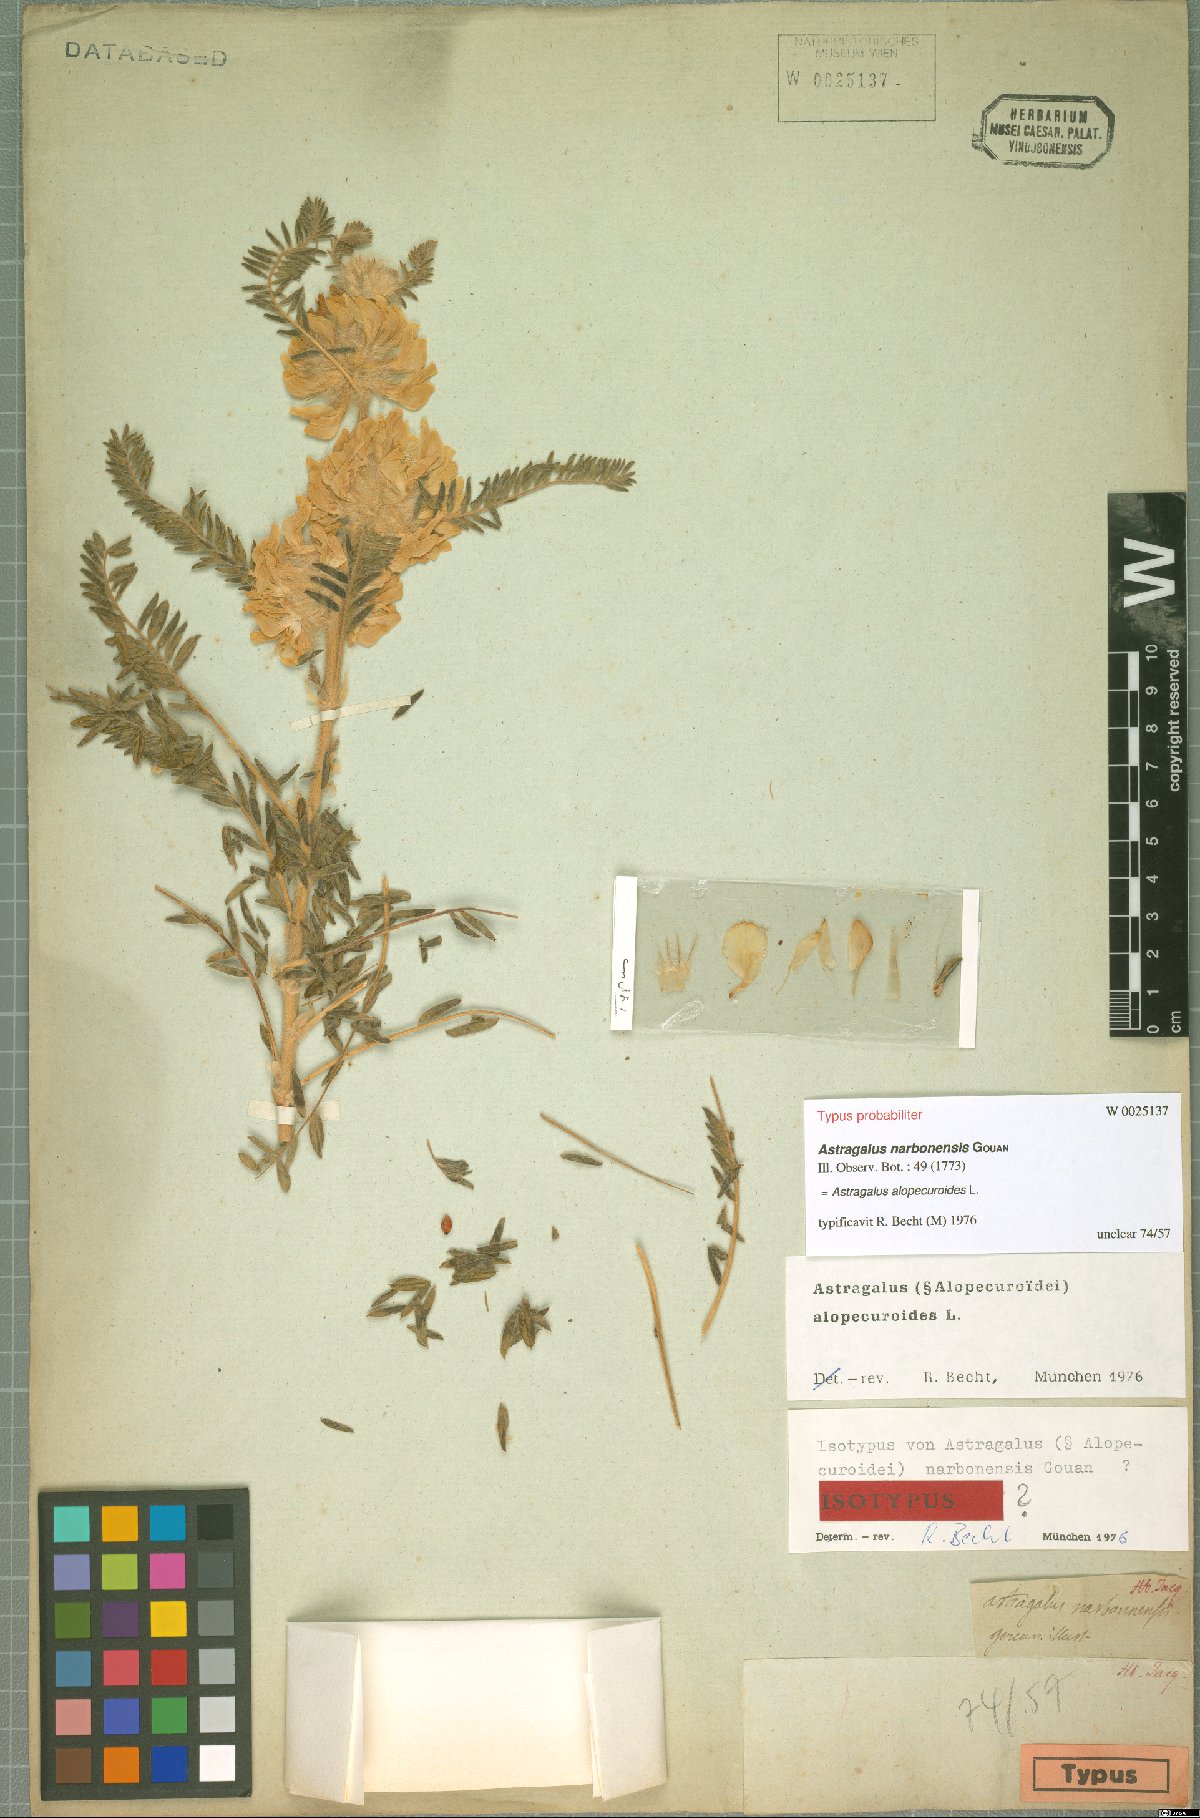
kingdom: Plantae
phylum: Tracheophyta
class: Magnoliopsida
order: Fabales
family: Fabaceae
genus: Astragalus
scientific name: Astragalus alopecuroides
